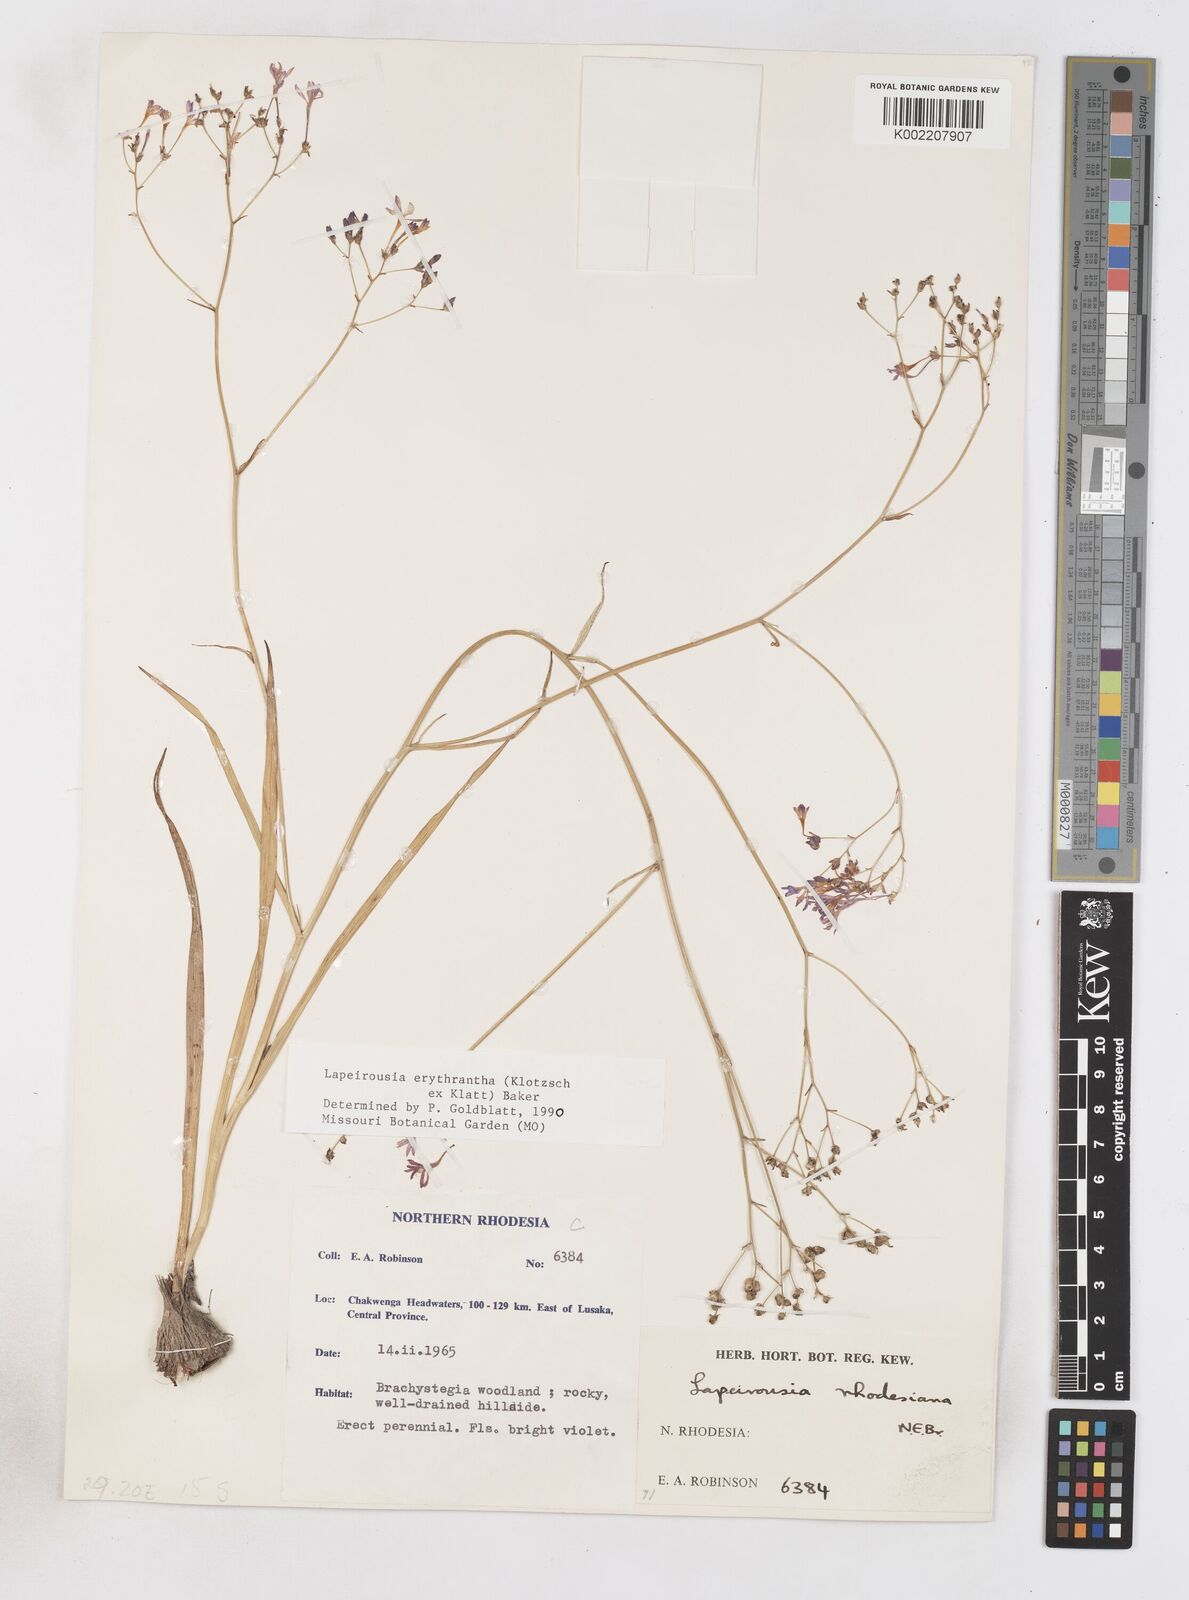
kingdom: Plantae
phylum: Tracheophyta
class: Liliopsida
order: Asparagales
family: Iridaceae
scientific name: Iridaceae
